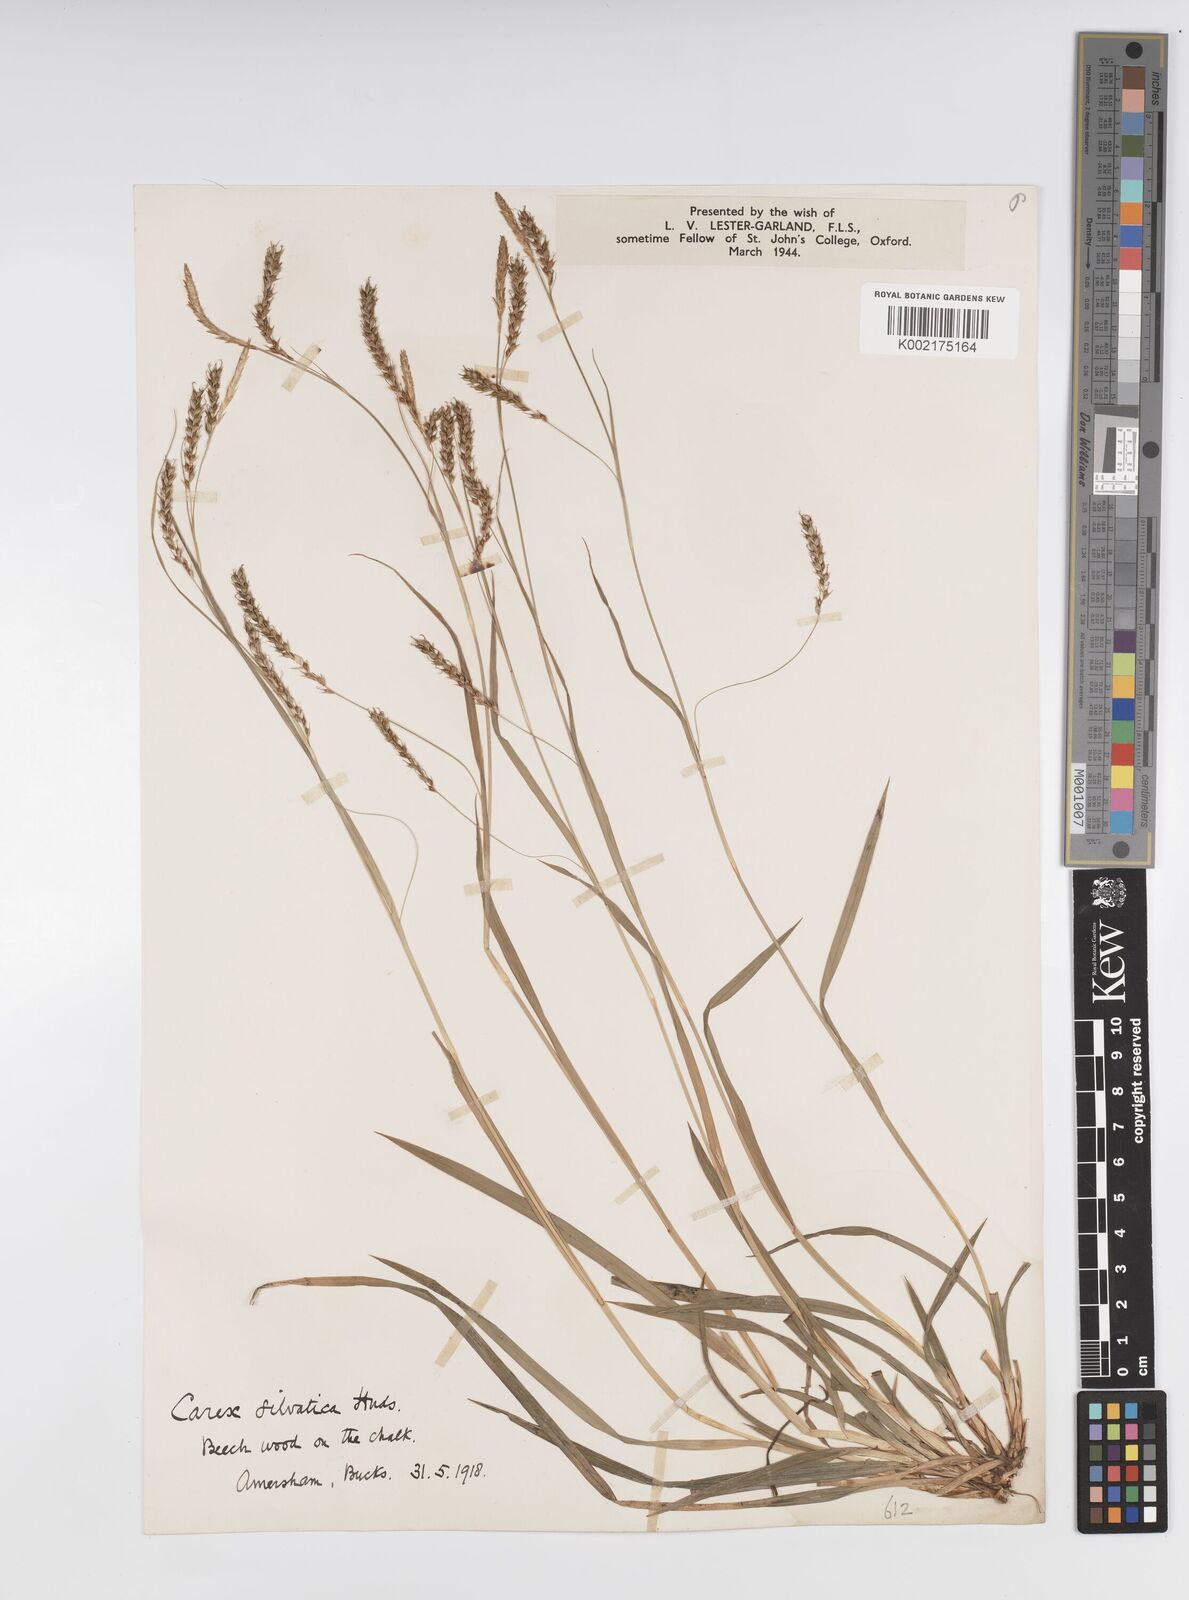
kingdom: Plantae
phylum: Tracheophyta
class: Liliopsida
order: Poales
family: Cyperaceae
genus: Carex
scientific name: Carex sylvatica
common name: Wood-sedge
